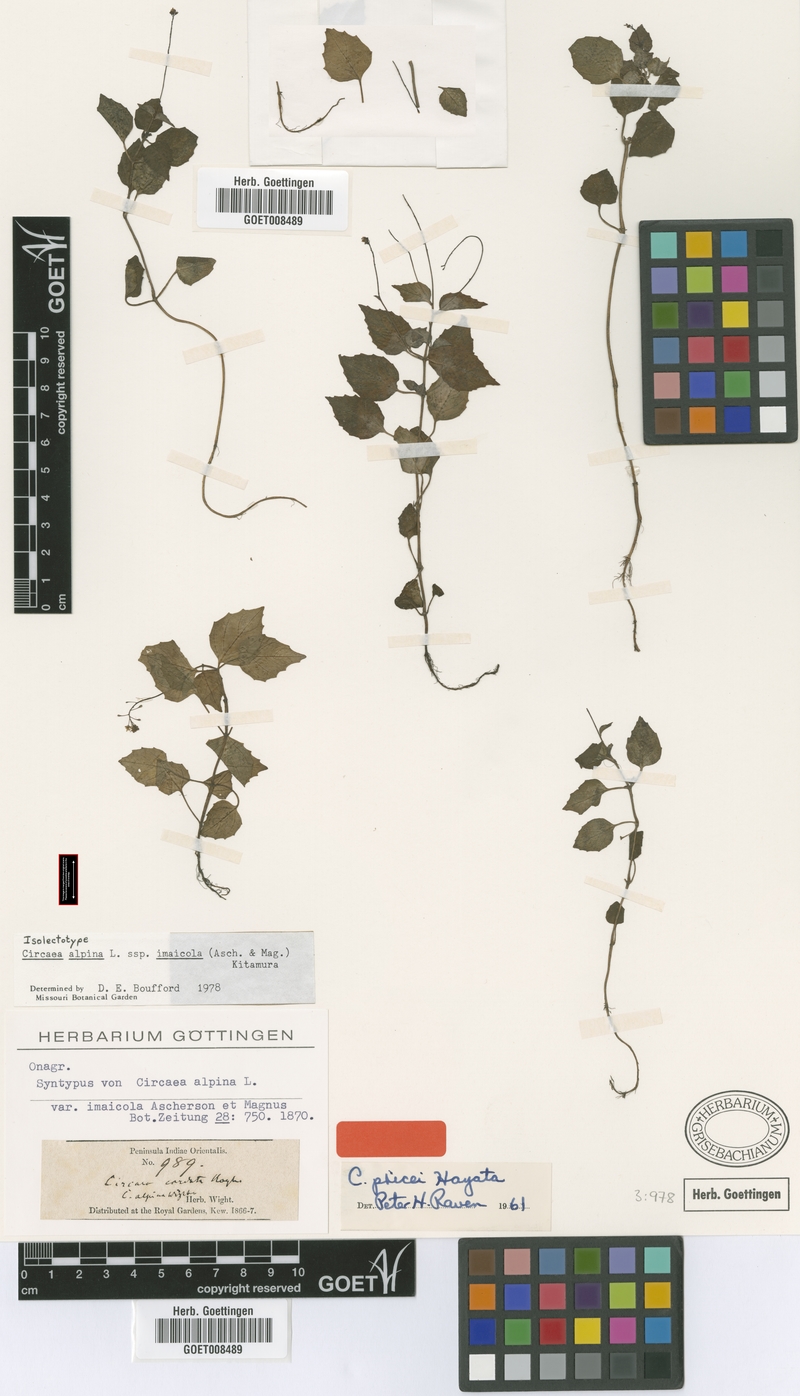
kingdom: Plantae
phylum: Tracheophyta
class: Magnoliopsida
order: Myrtales
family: Onagraceae
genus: Circaea
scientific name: Circaea alpina
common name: Alpine enchanter's-nightshade
